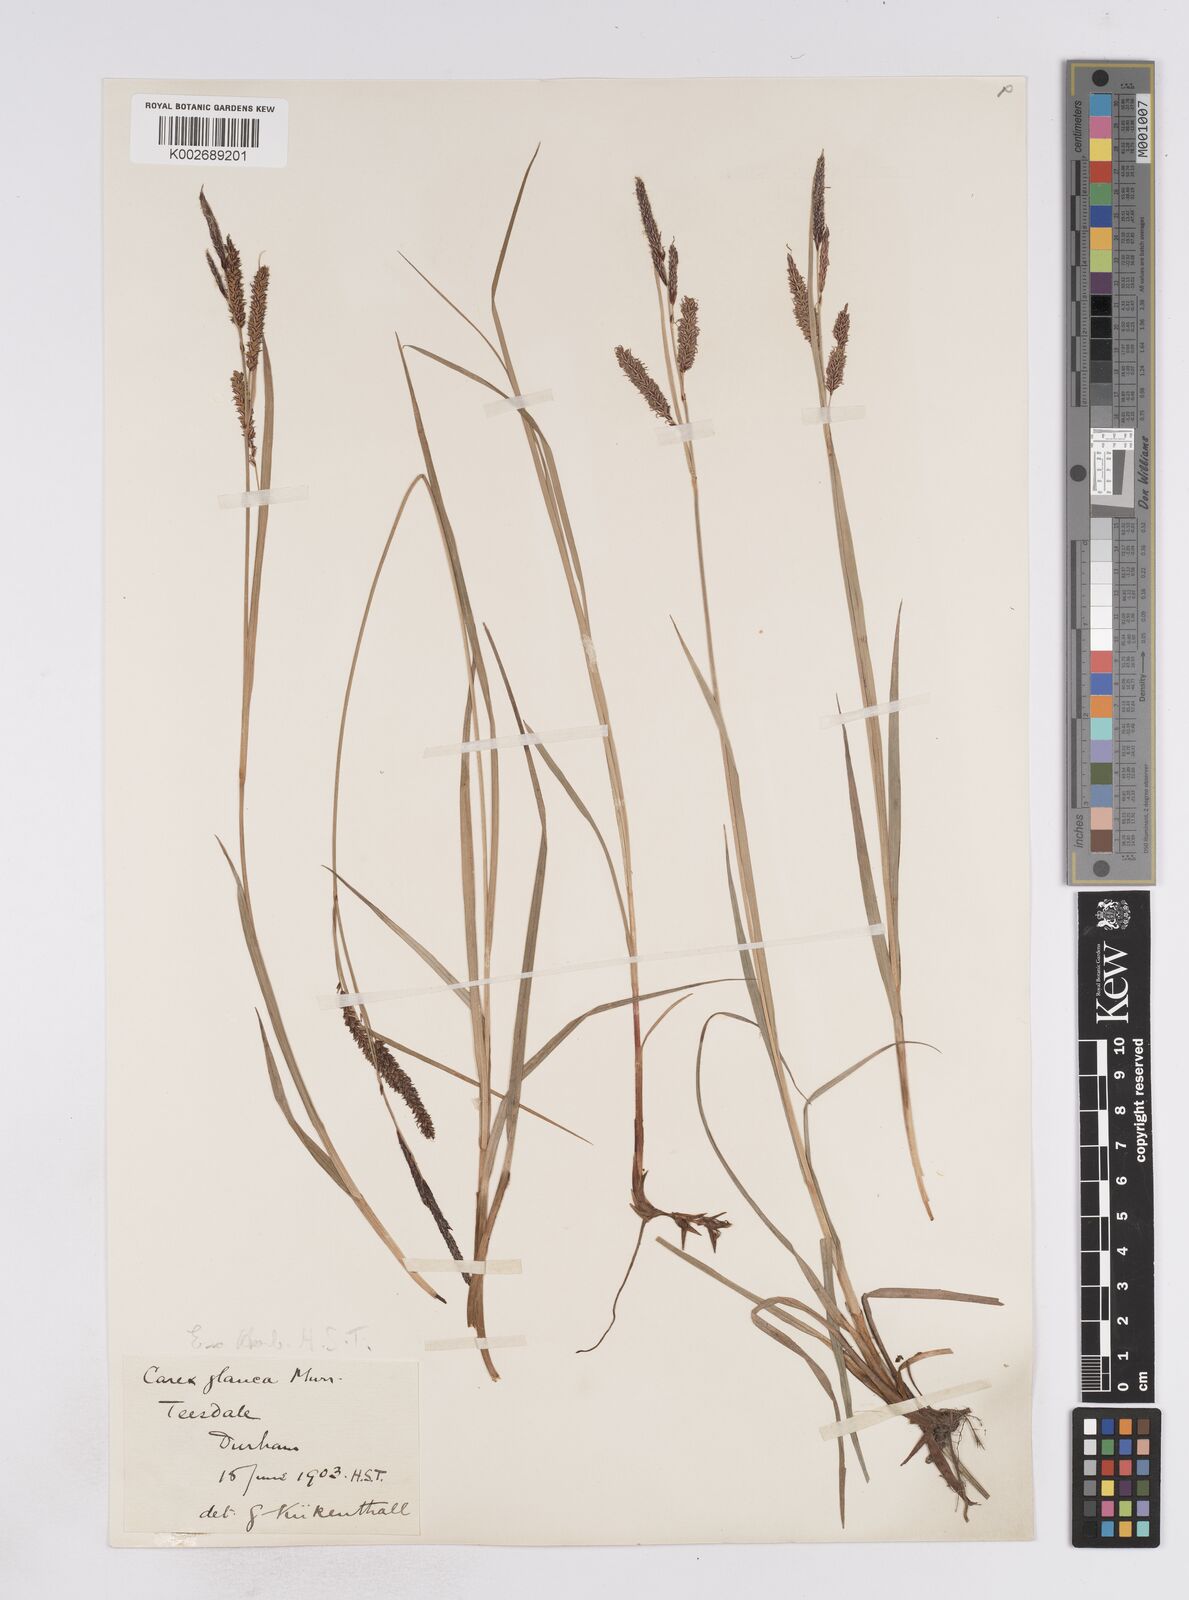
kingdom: Plantae
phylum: Tracheophyta
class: Liliopsida
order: Poales
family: Cyperaceae
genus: Carex
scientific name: Carex flacca
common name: Glaucous sedge
